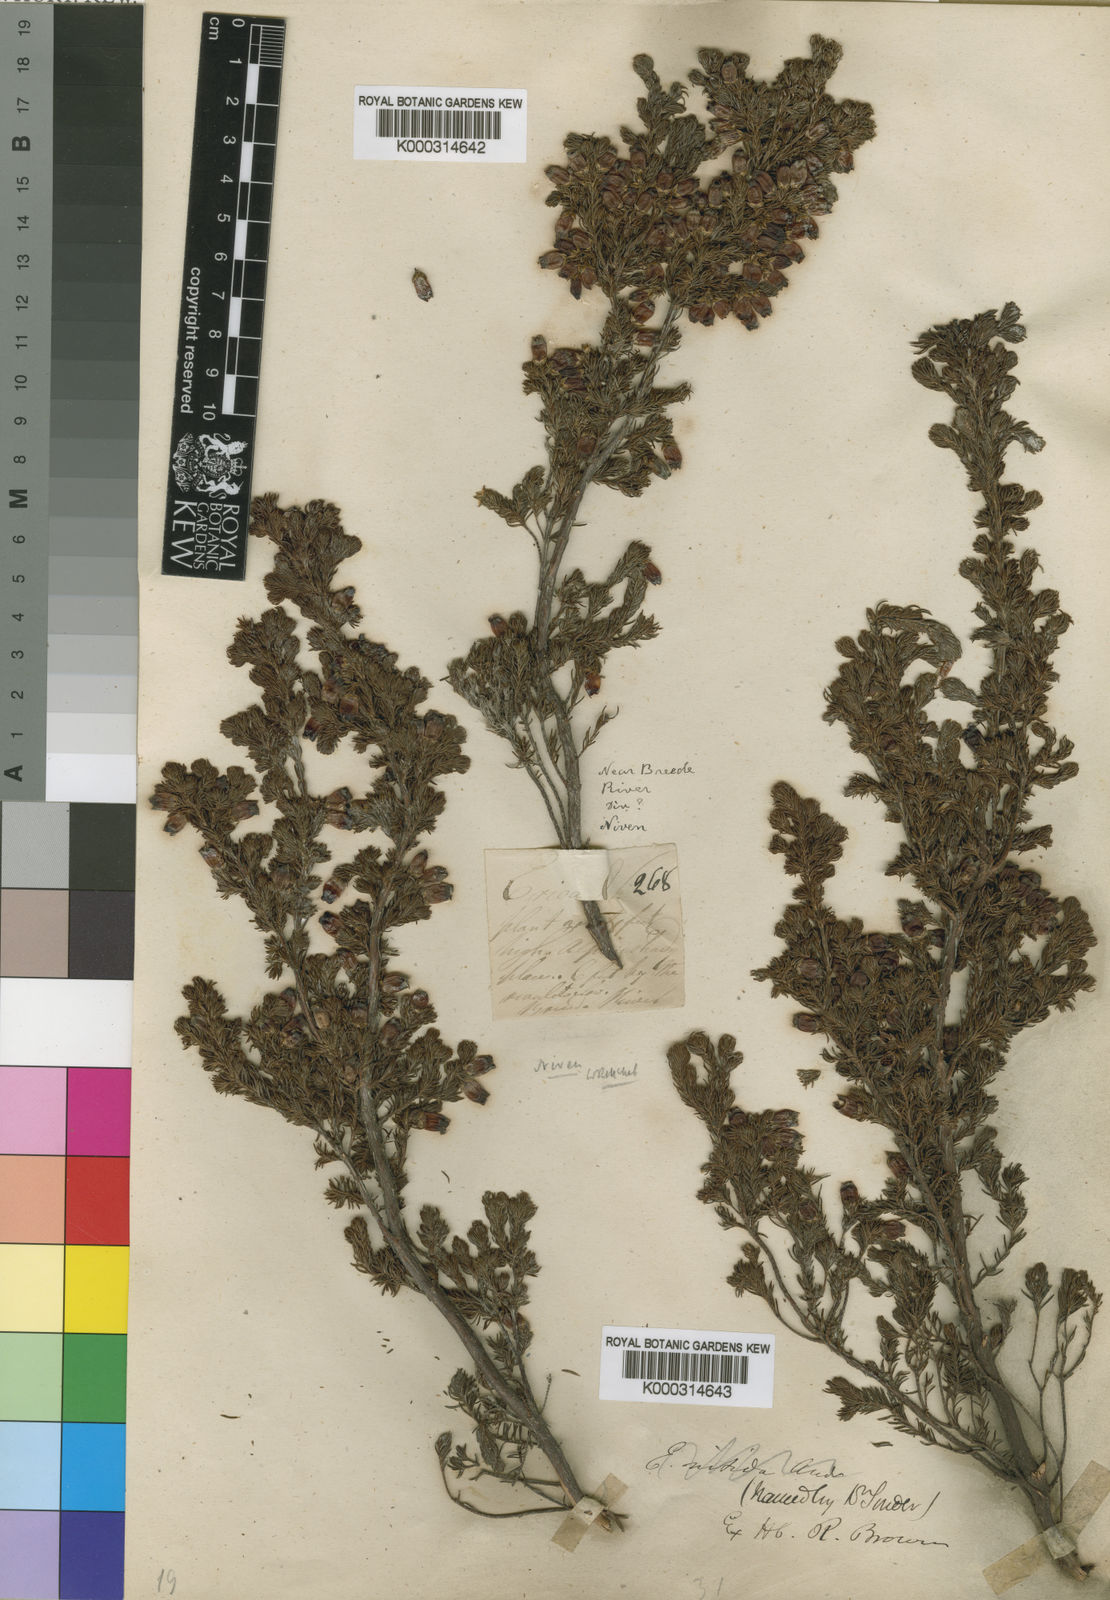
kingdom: Plantae
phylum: Tracheophyta
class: Magnoliopsida
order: Ericales
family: Ericaceae
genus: Erica
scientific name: Erica blandfordia
